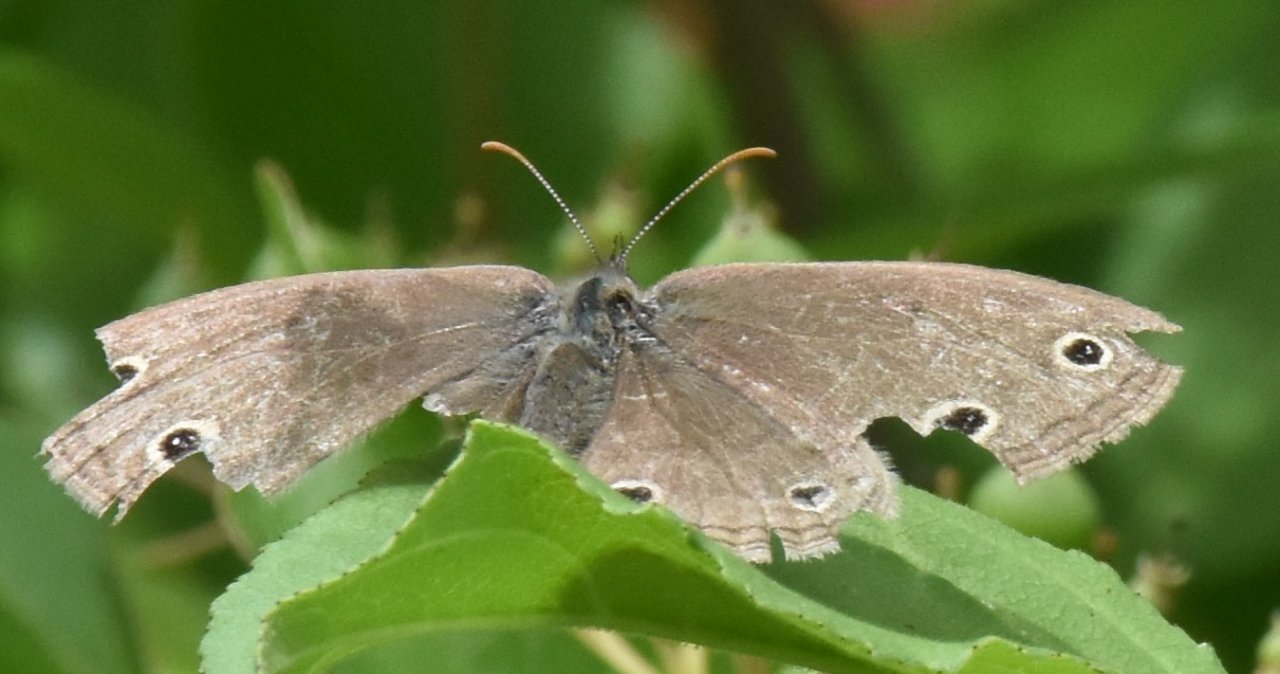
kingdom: Animalia
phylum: Arthropoda
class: Insecta
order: Lepidoptera
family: Nymphalidae
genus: Euptychia
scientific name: Euptychia cymela
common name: Little Wood Satyr
